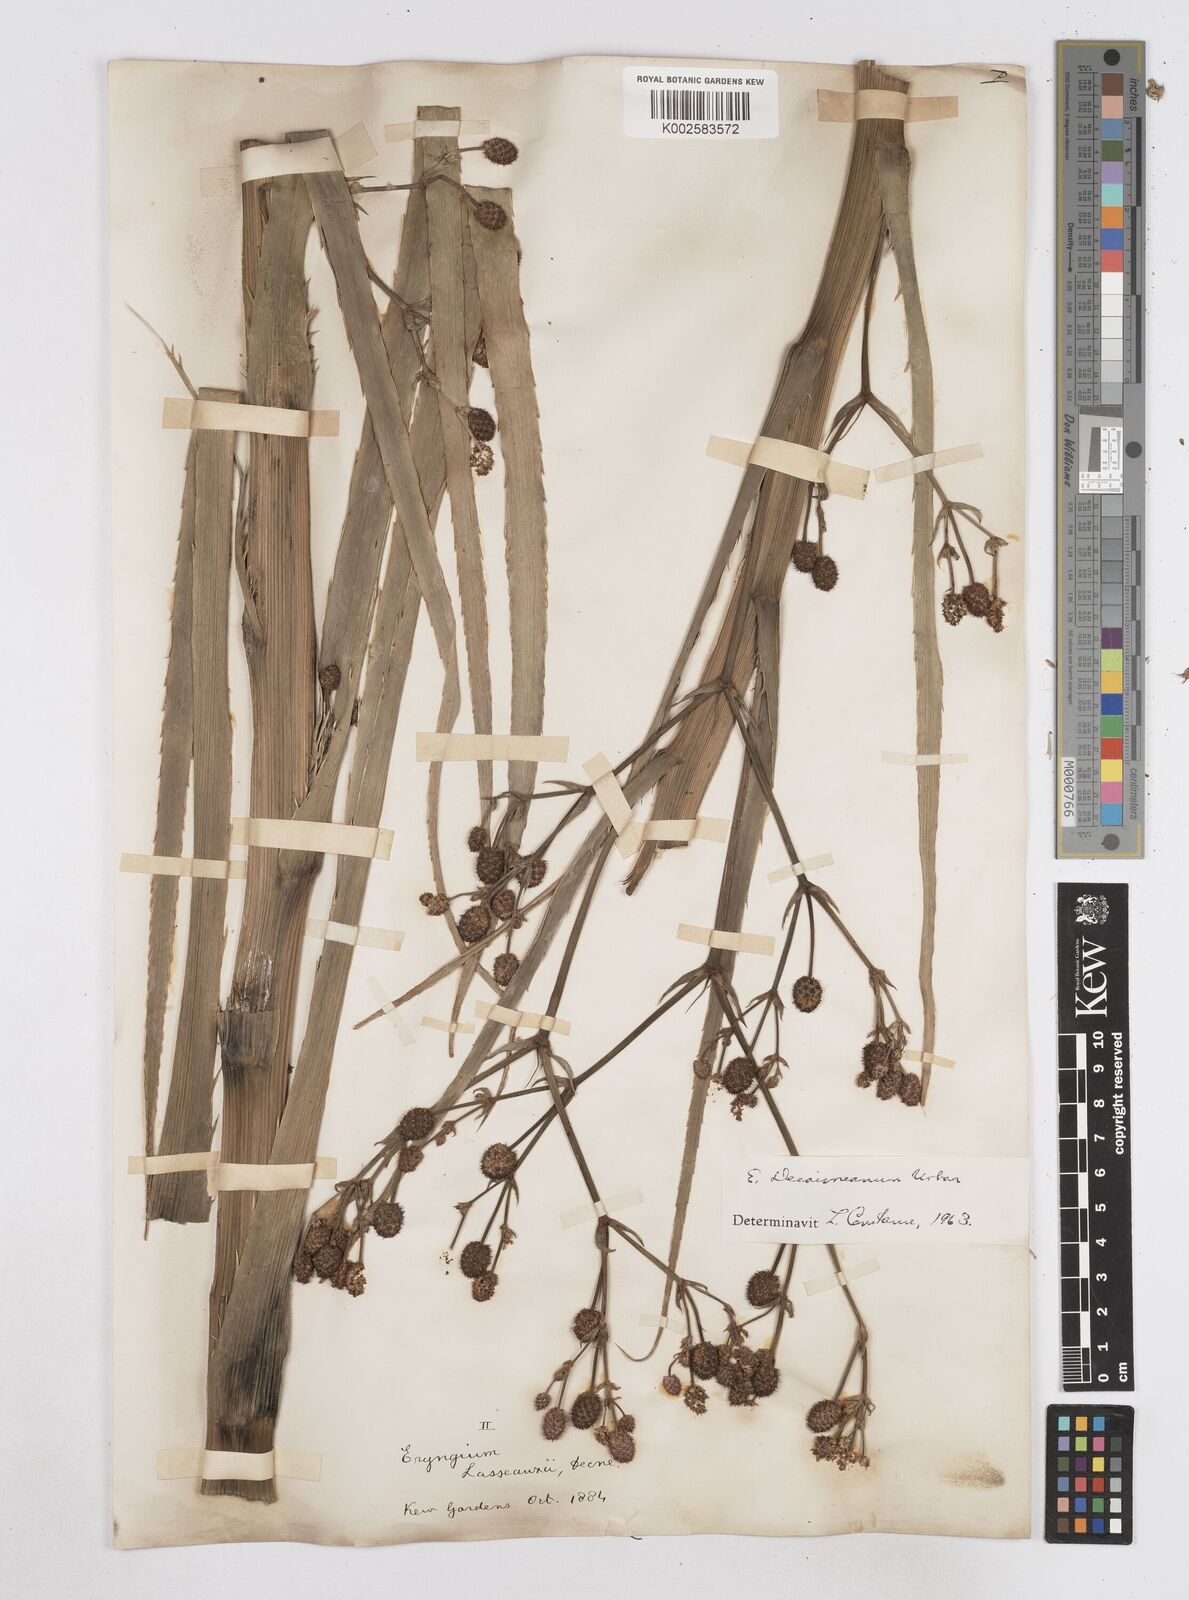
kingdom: Plantae
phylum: Tracheophyta
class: Magnoliopsida
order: Apiales
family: Apiaceae
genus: Eryngium
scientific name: Eryngium pandanifolium
